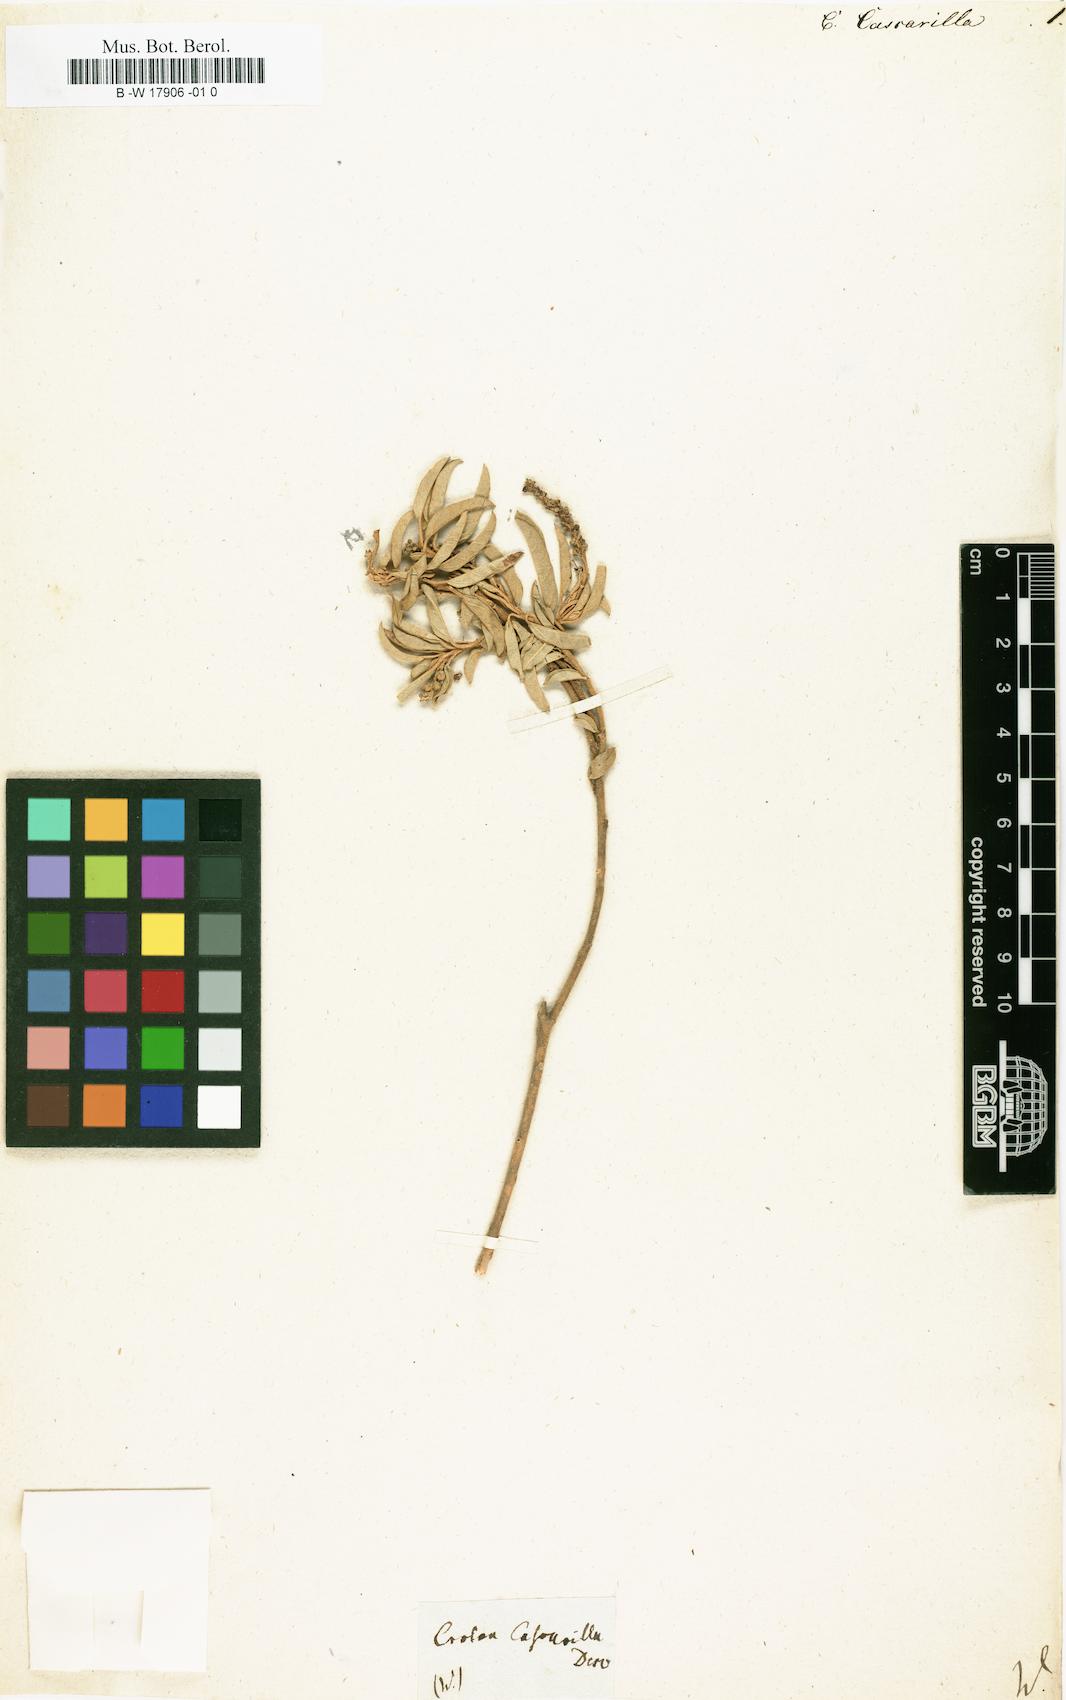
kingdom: Plantae
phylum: Tracheophyta
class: Magnoliopsida
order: Malpighiales
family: Euphorbiaceae
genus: Croton
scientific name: Croton eluteria
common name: Seaside balsam
